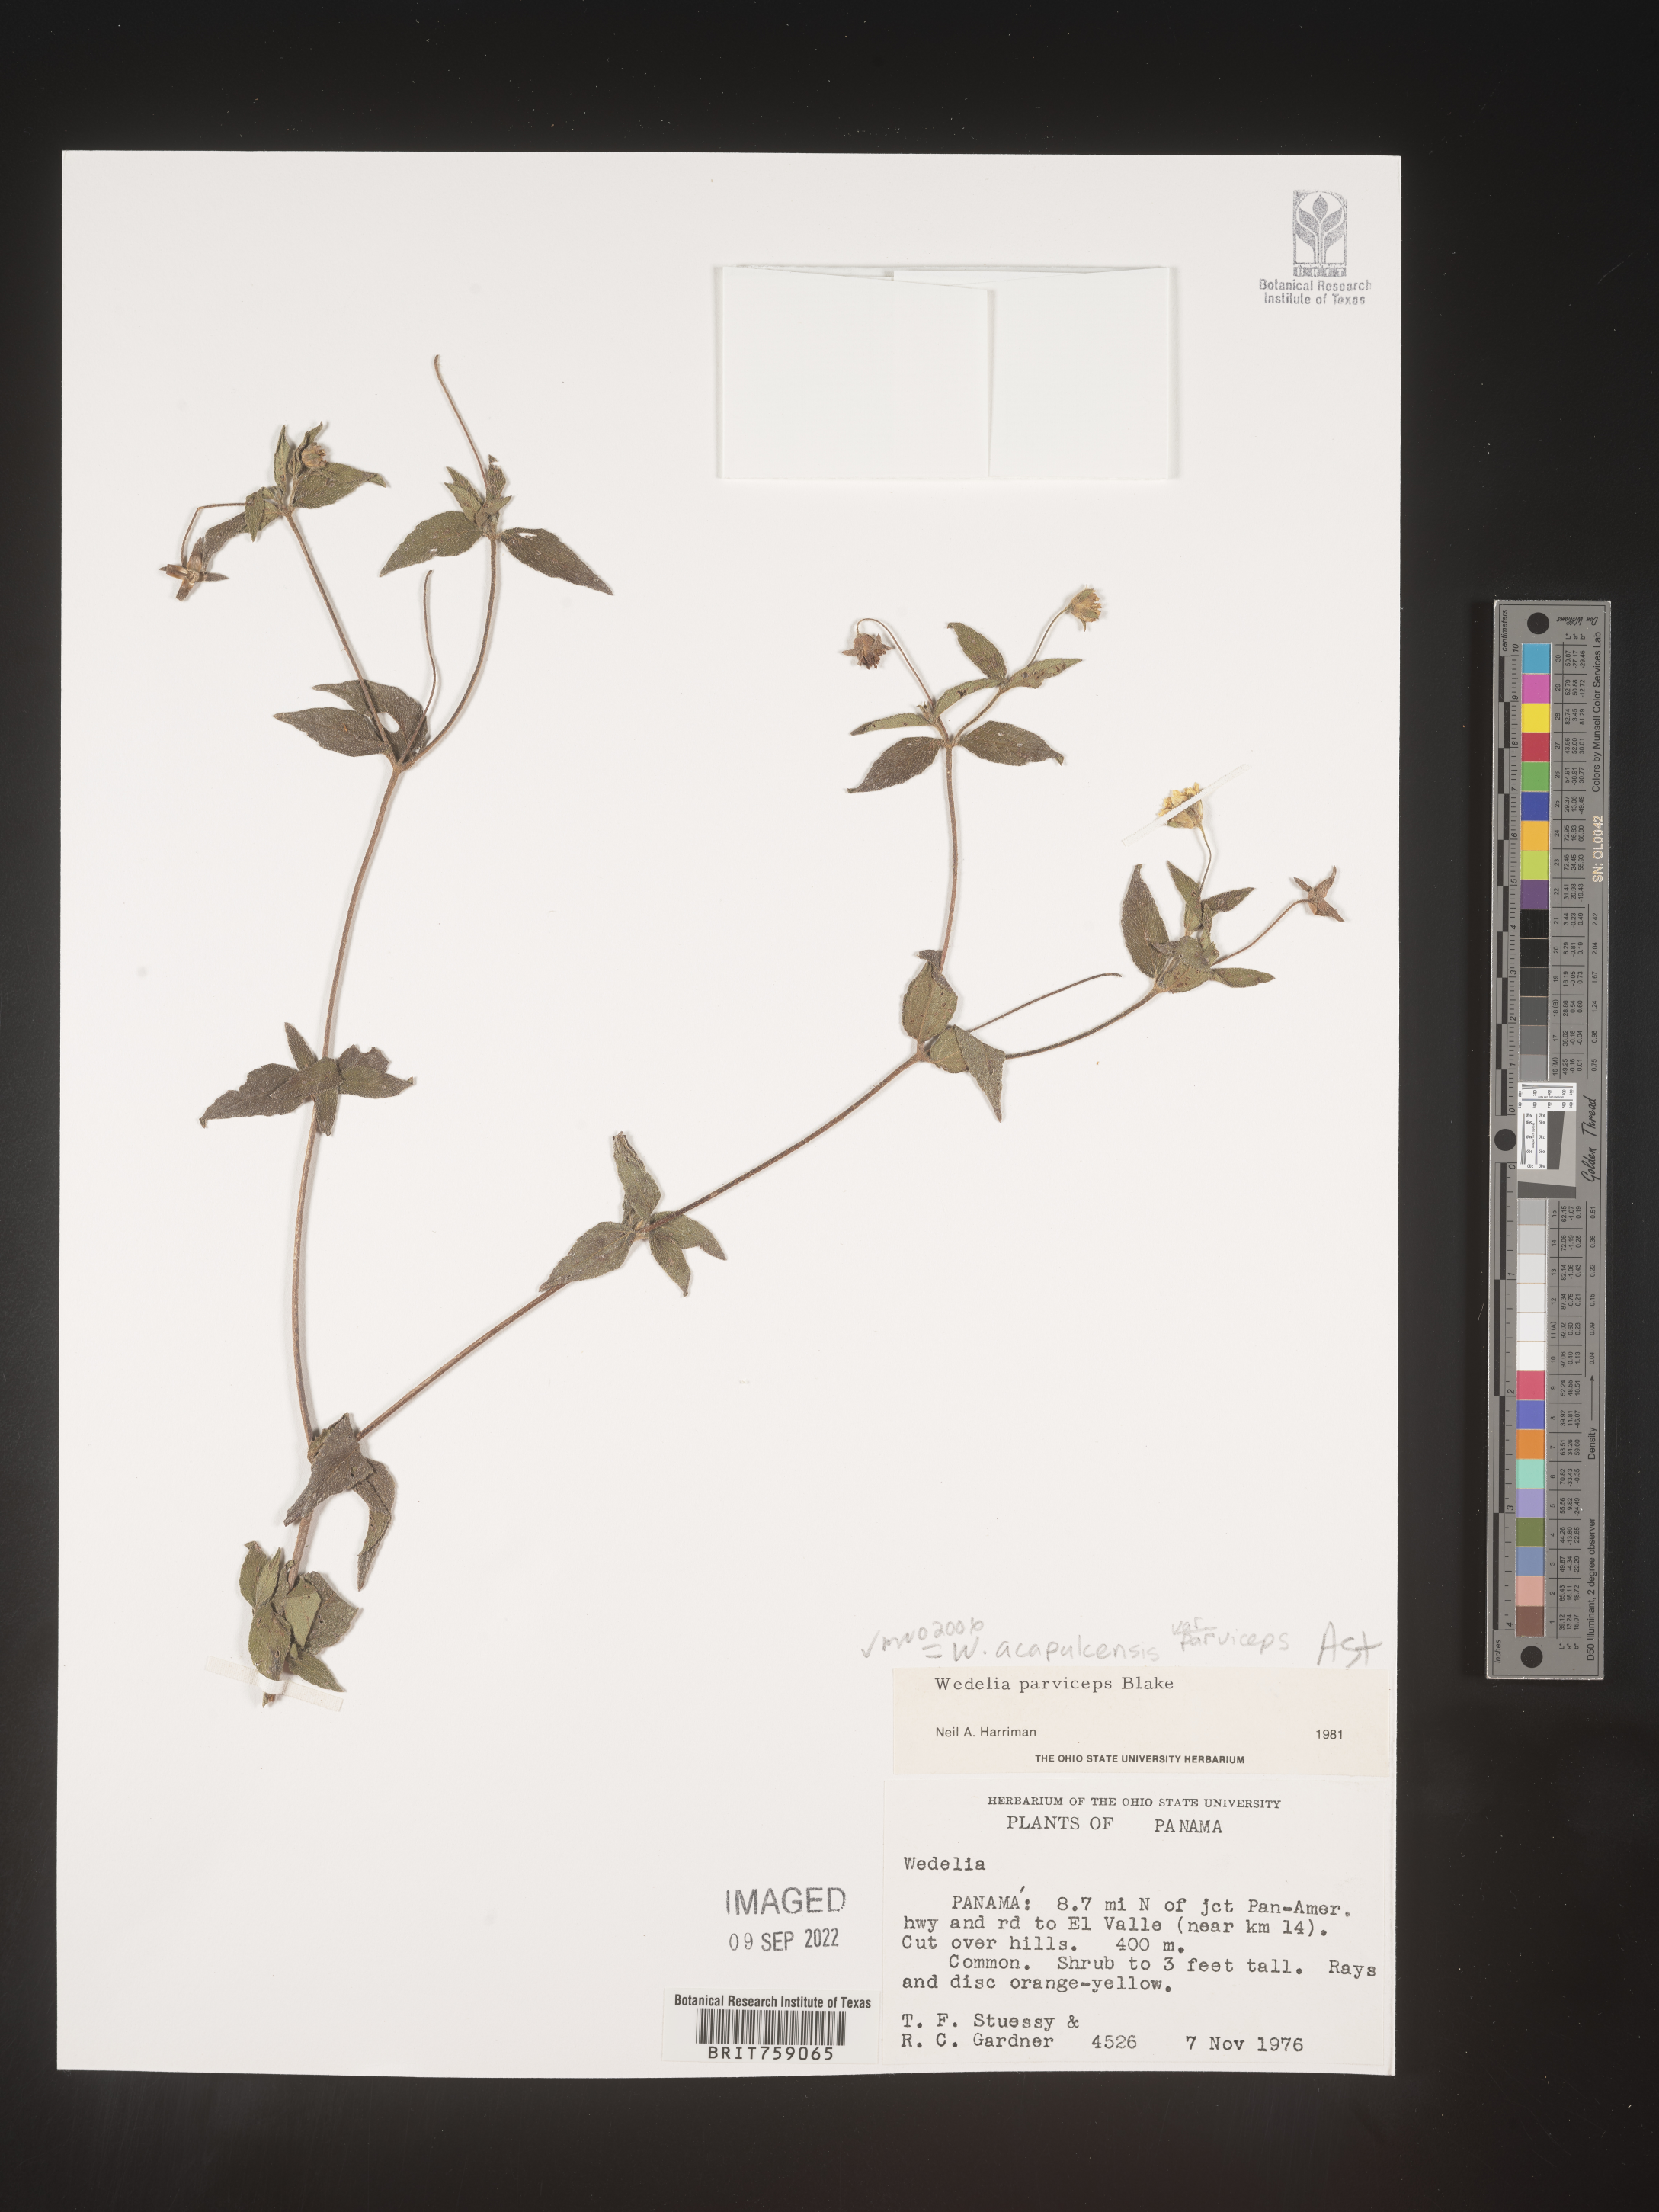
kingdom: Plantae
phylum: Tracheophyta
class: Magnoliopsida
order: Asterales
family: Asteraceae
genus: Wedelia
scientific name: Wedelia
